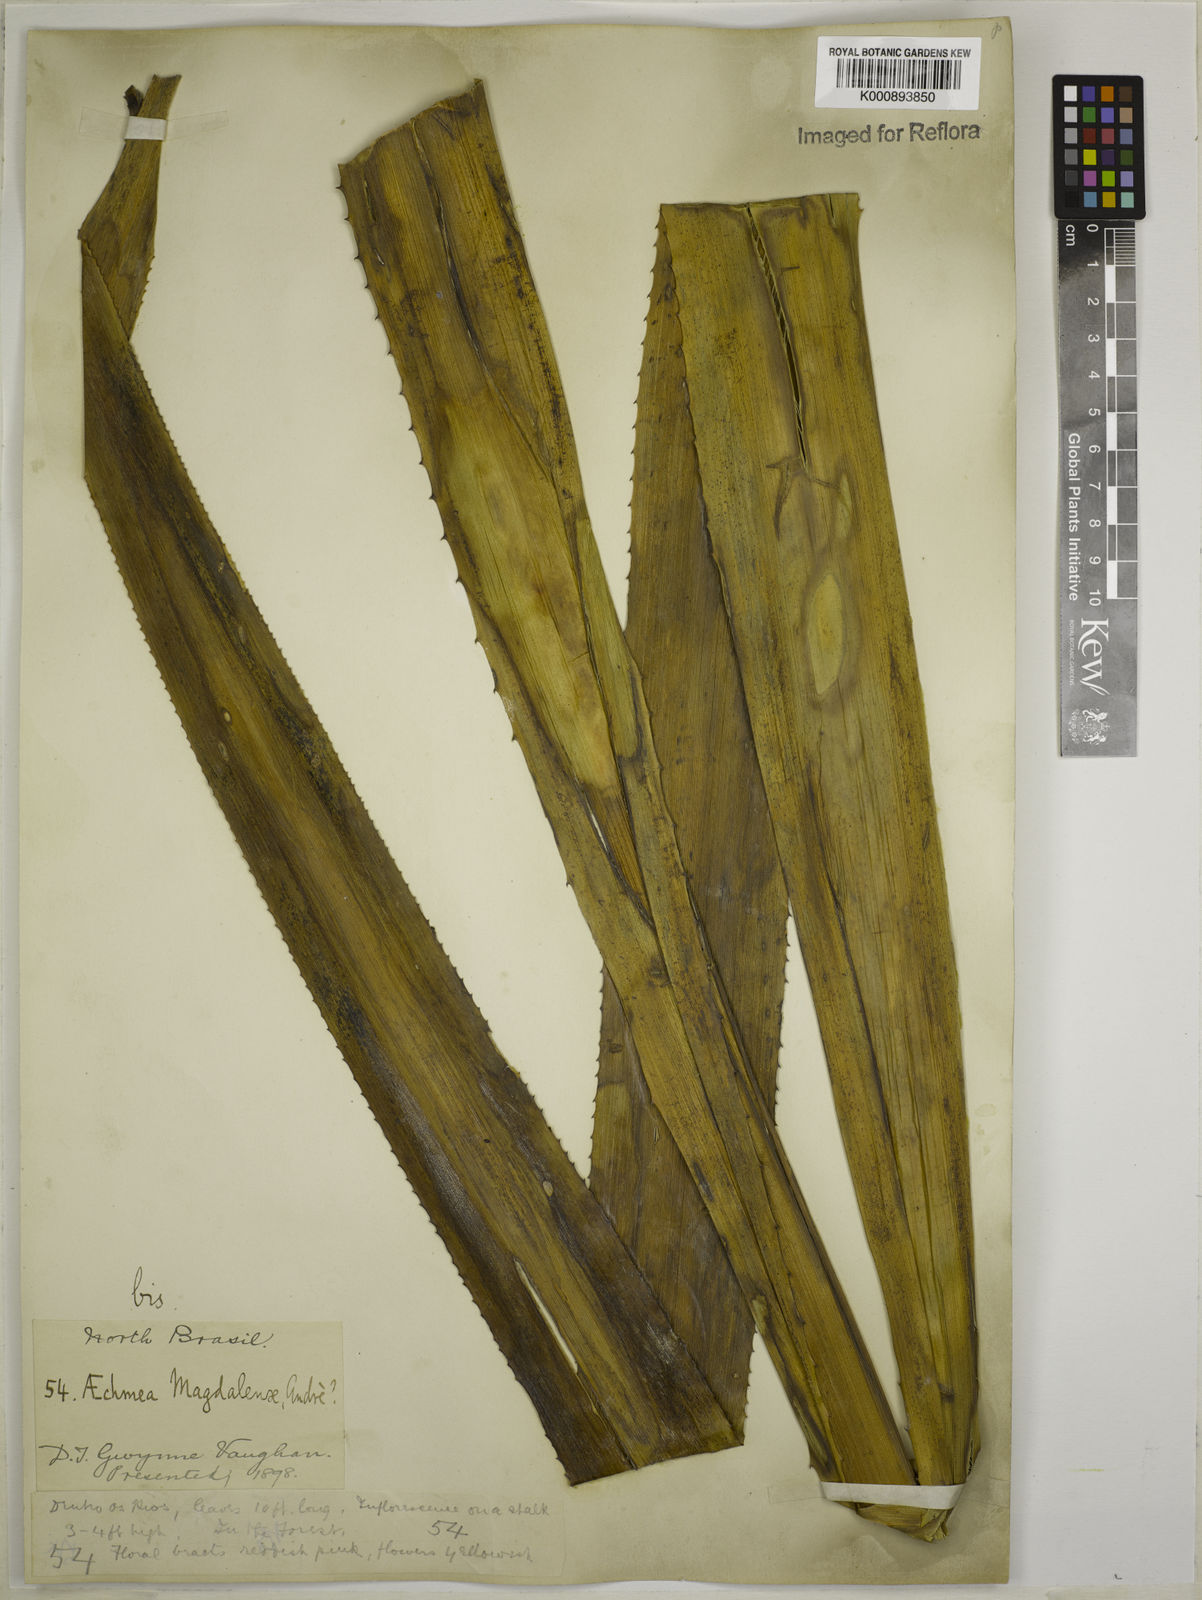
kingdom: Plantae
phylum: Tracheophyta
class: Liliopsida
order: Poales
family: Bromeliaceae
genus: Aechmea
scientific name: Aechmea
